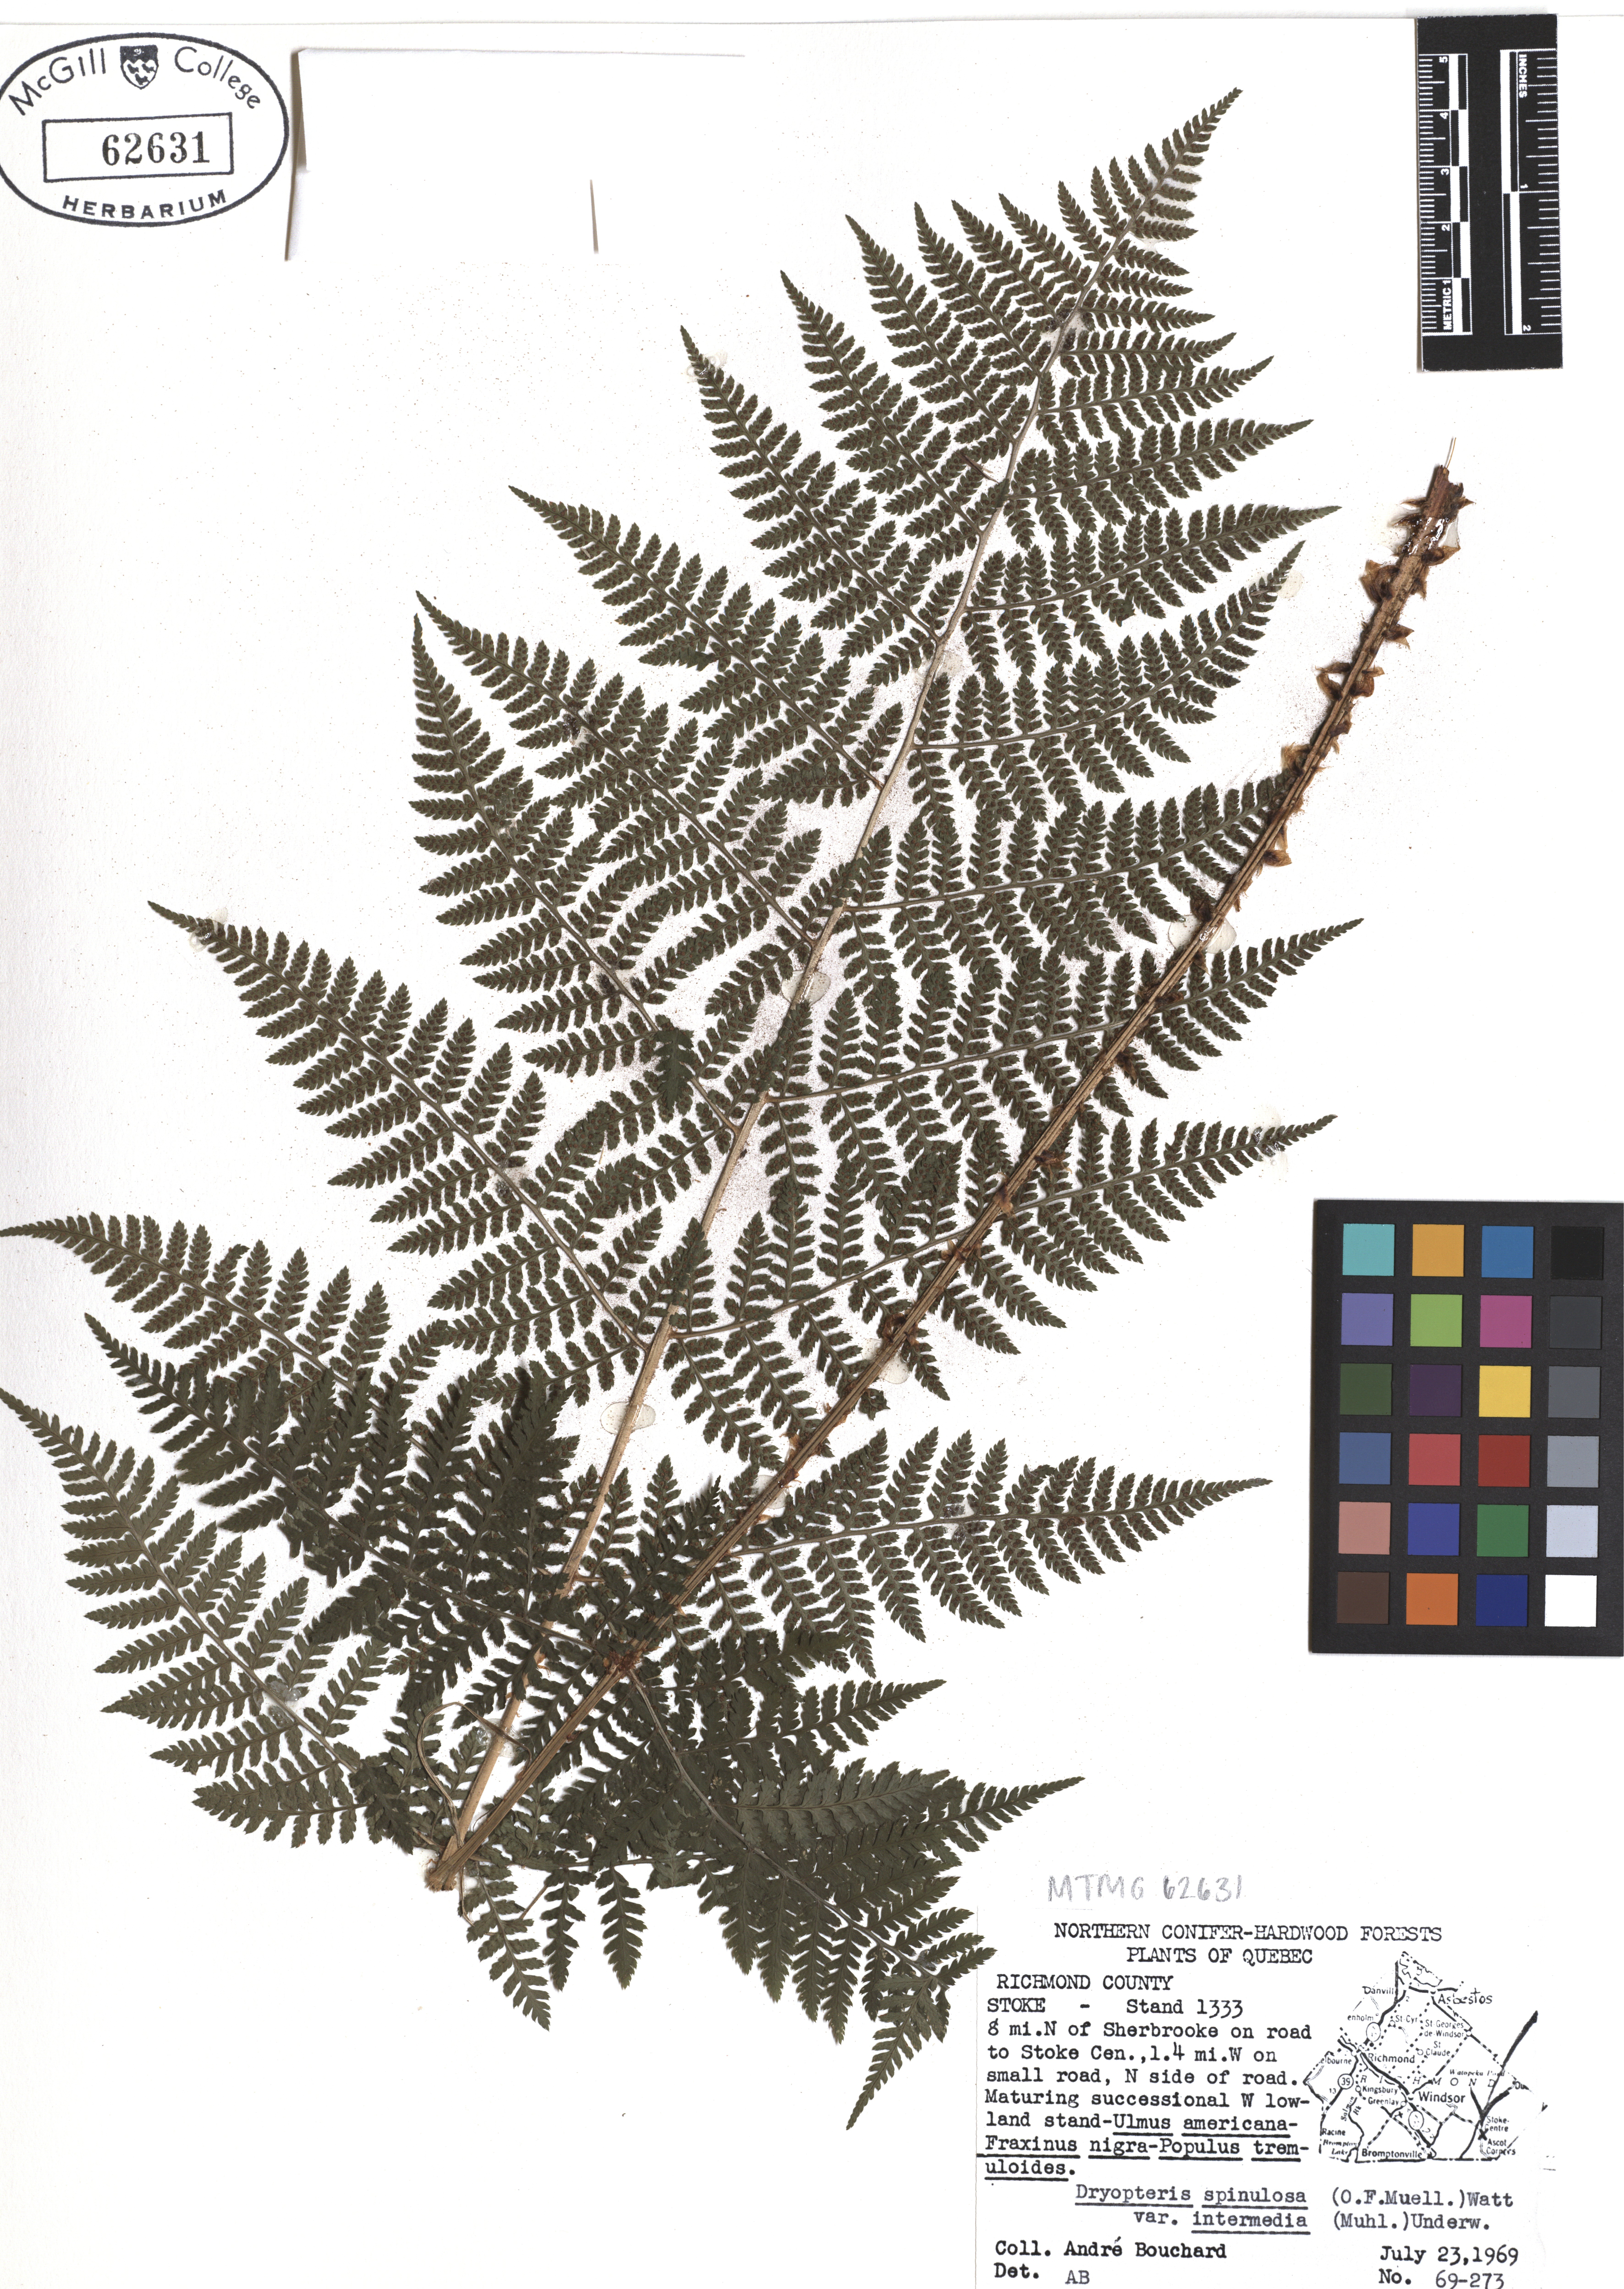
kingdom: Plantae
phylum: Tracheophyta
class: Polypodiopsida
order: Polypodiales
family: Dryopteridaceae
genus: Dryopteris
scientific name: Dryopteris intermedia
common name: Evergreen wood fern
